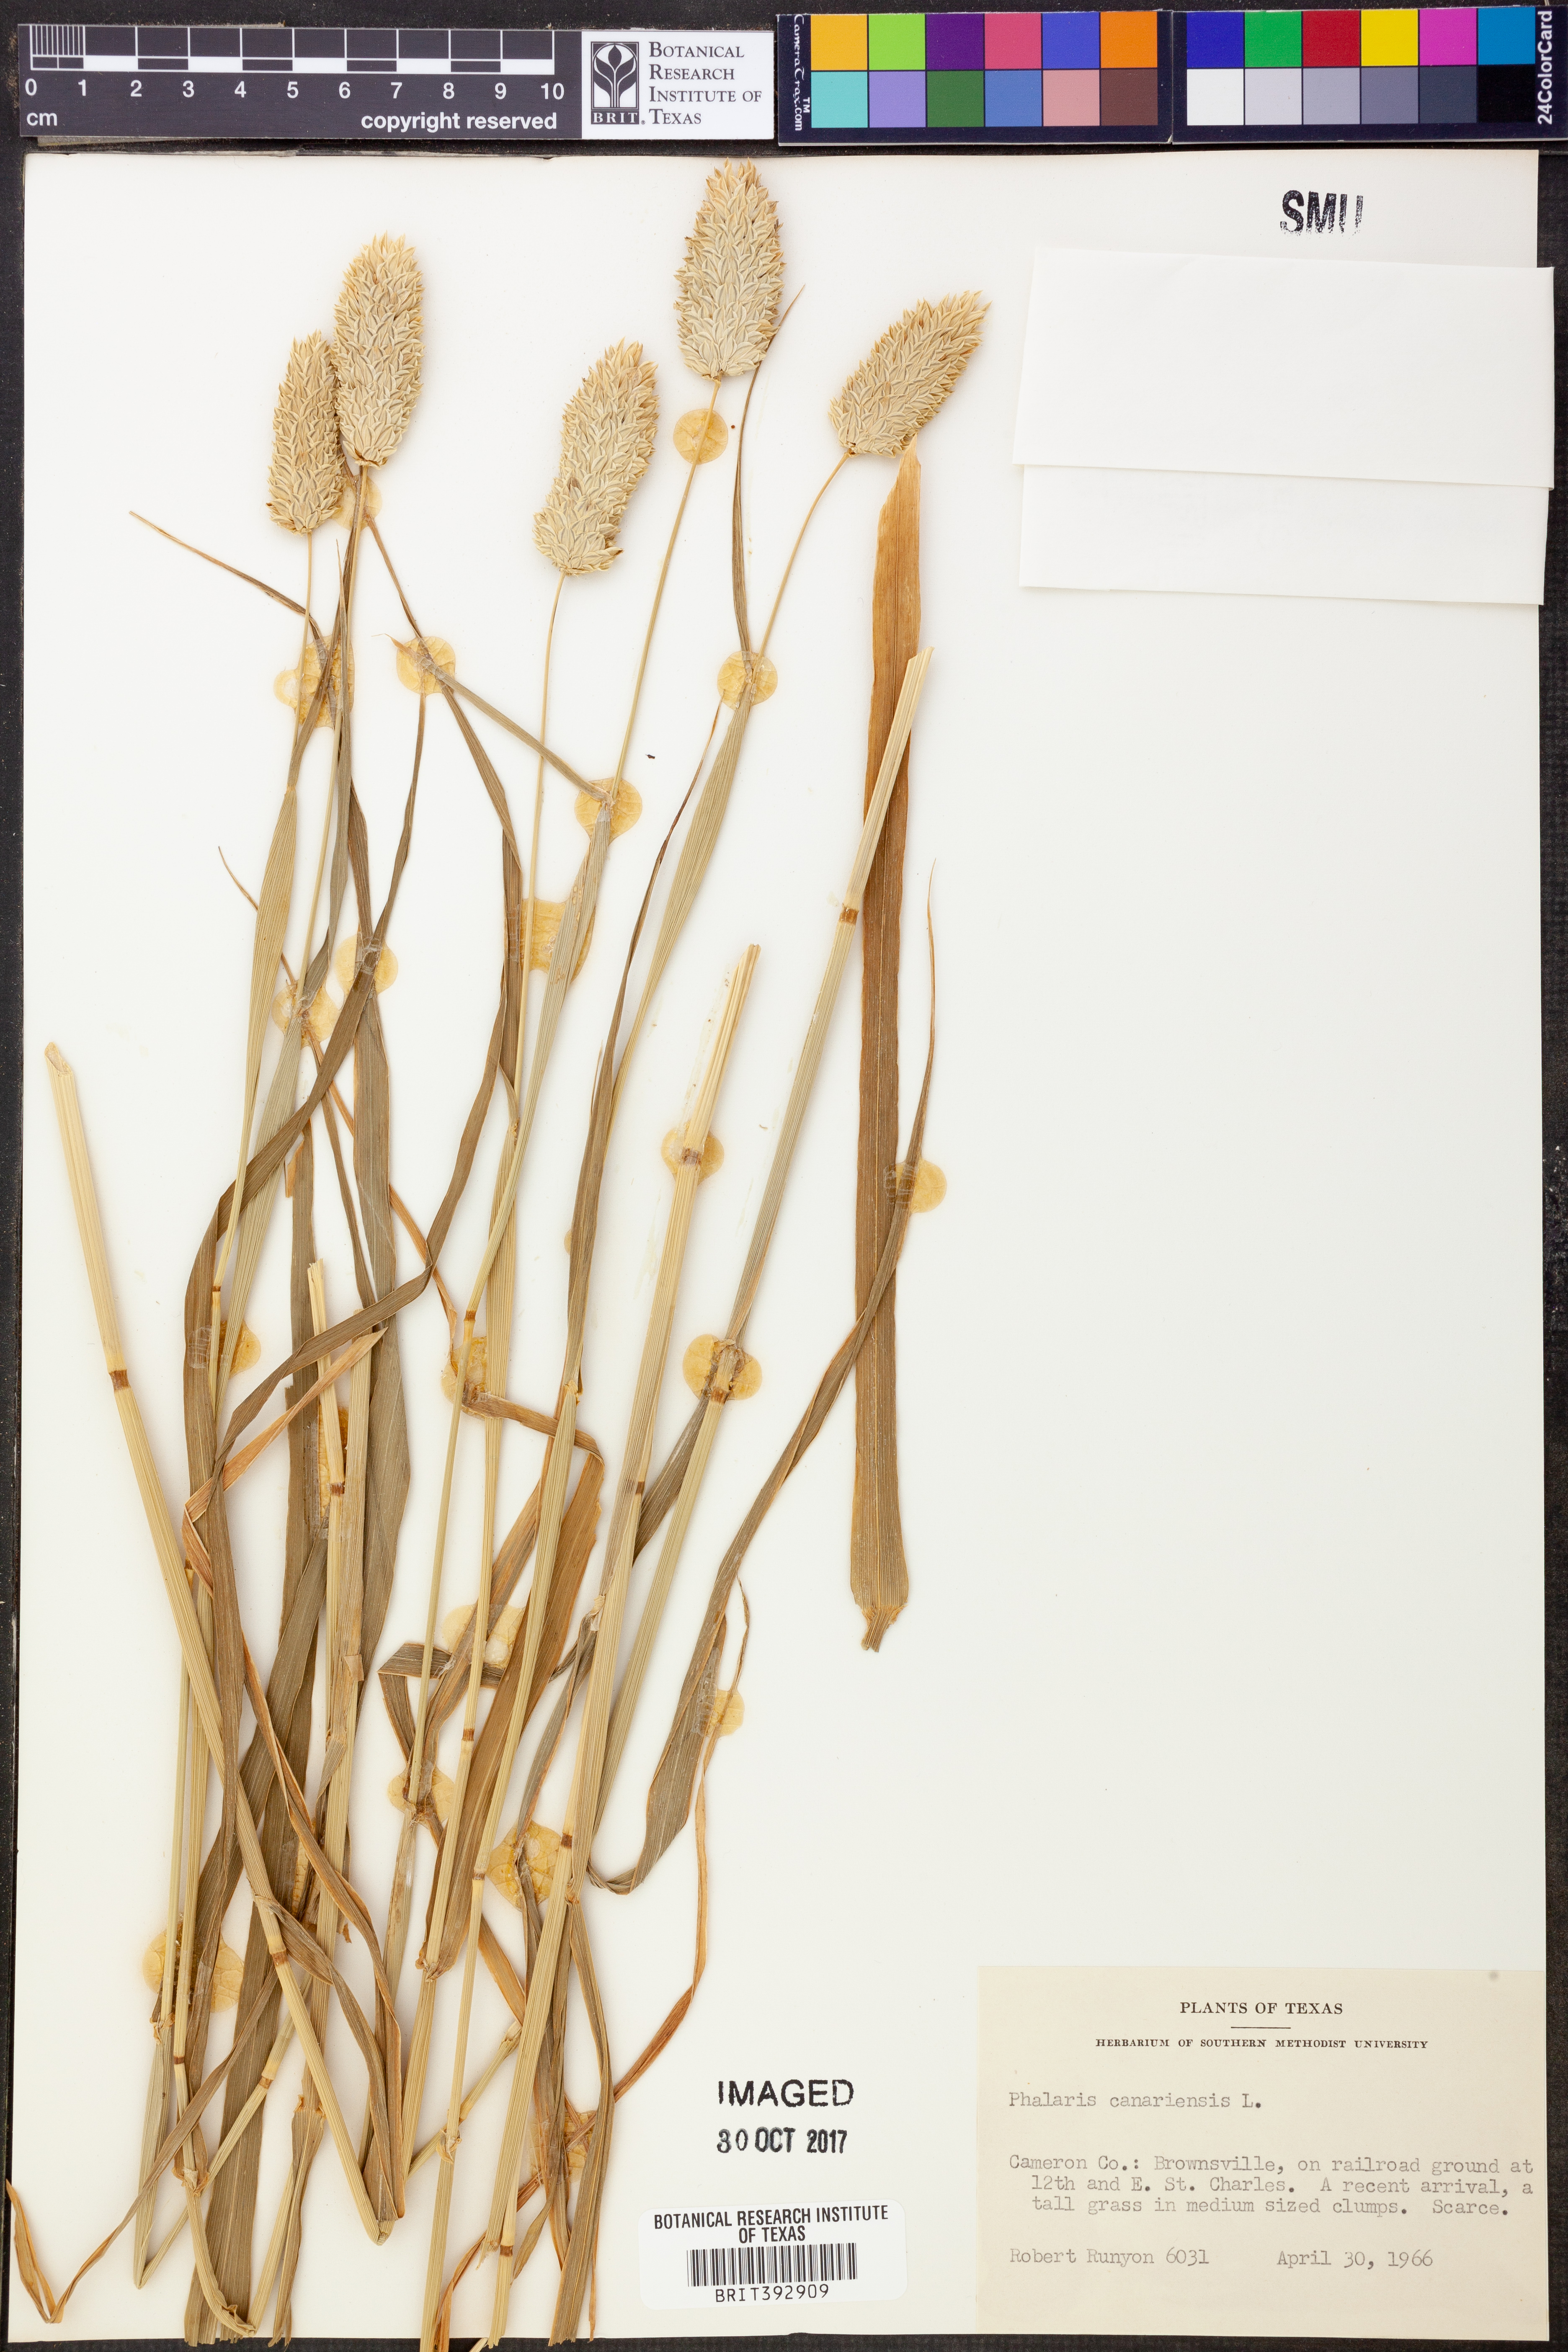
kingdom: Plantae
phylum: Tracheophyta
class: Liliopsida
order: Poales
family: Poaceae
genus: Phalaris
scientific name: Phalaris canariensis
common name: Annual canarygrass
